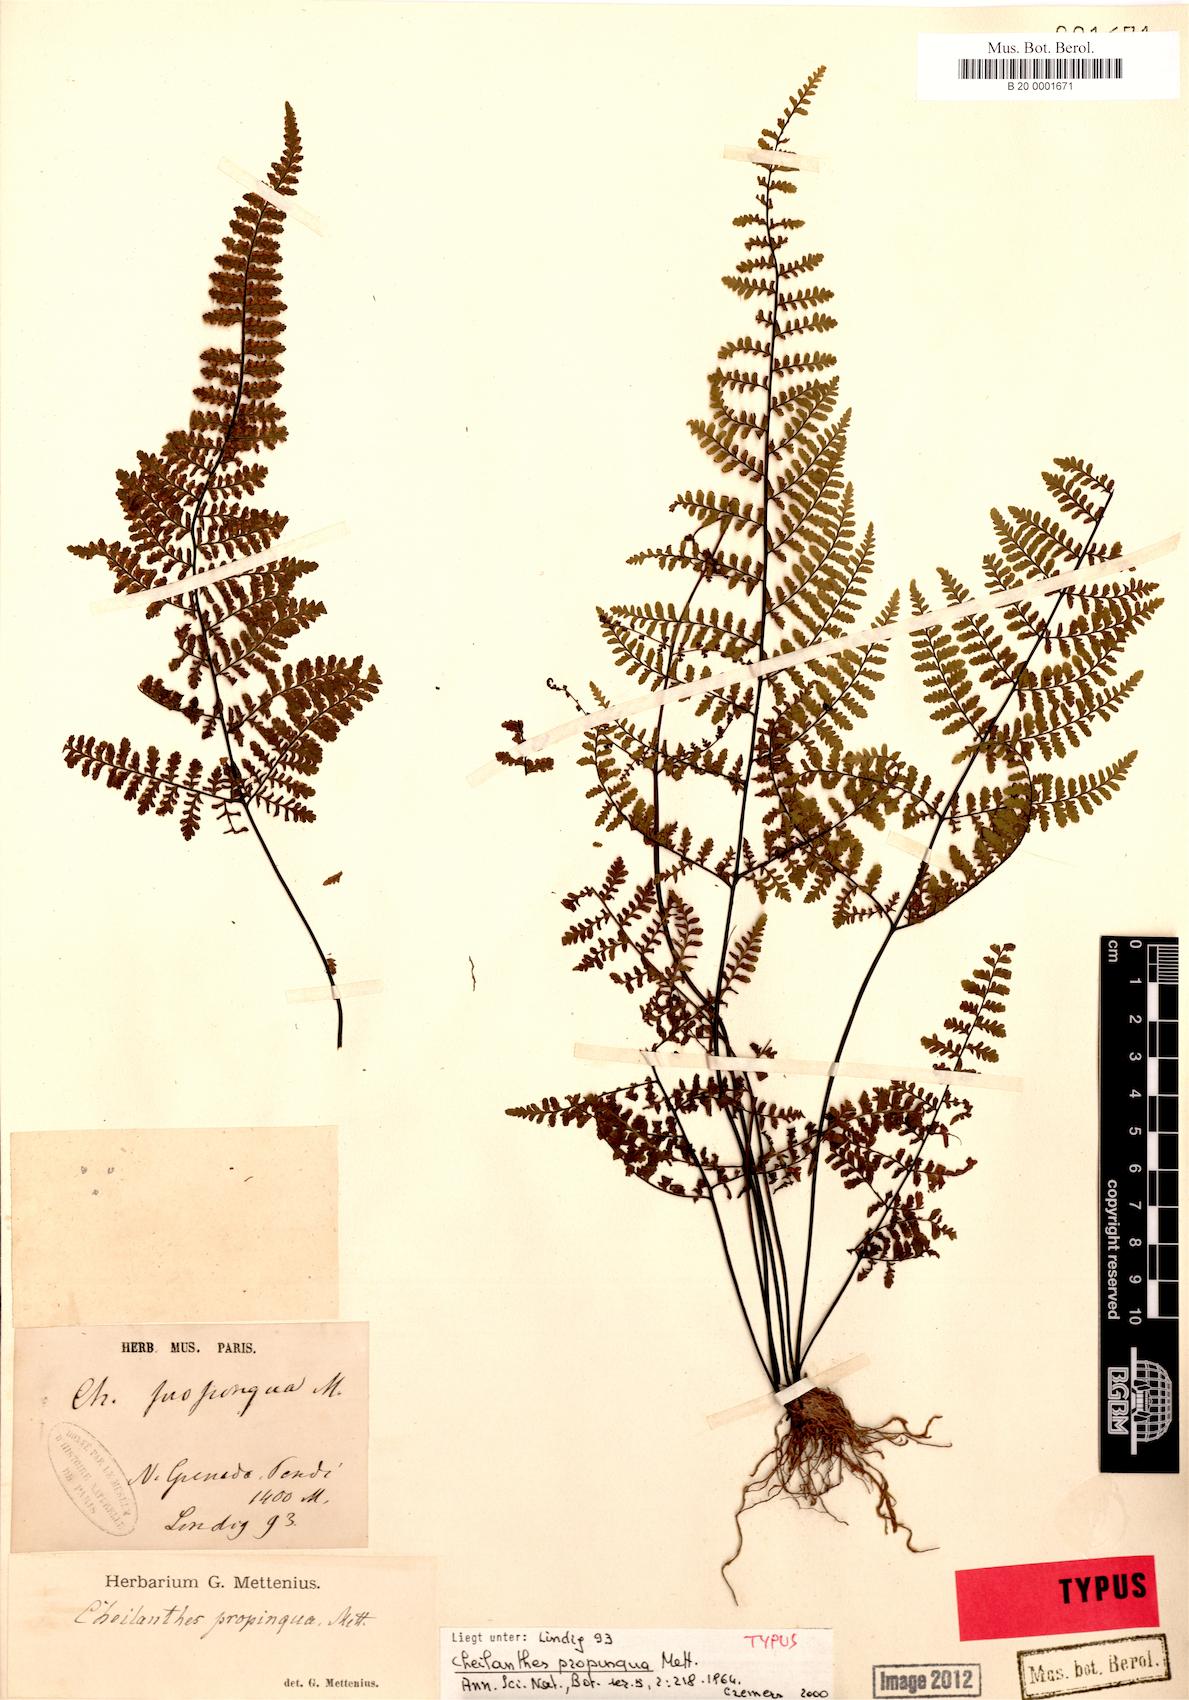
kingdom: Plantae
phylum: Tracheophyta
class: Polypodiopsida
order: Polypodiales
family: Pteridaceae
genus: Adiantopsis
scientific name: Adiantopsis propinqua
